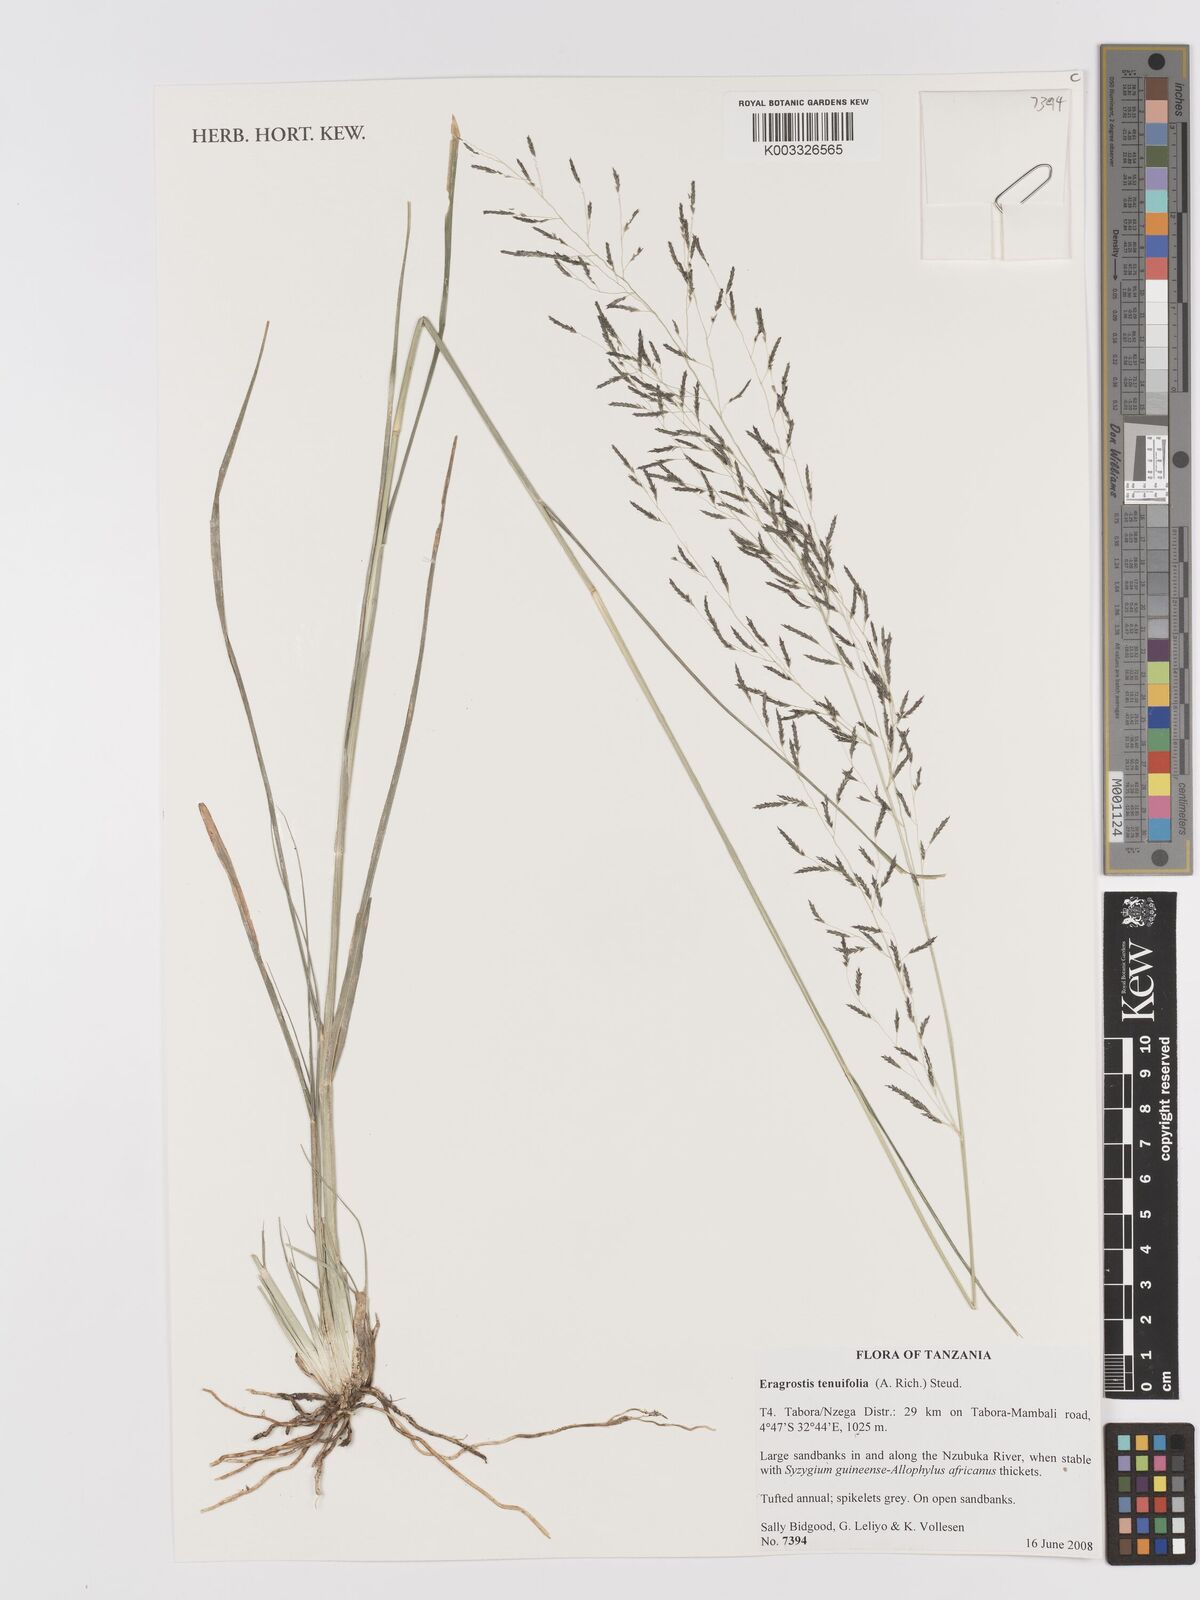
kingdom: Plantae
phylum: Tracheophyta
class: Liliopsida
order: Poales
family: Poaceae
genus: Eragrostis
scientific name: Eragrostis tenuifolia
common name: Elastic grass
